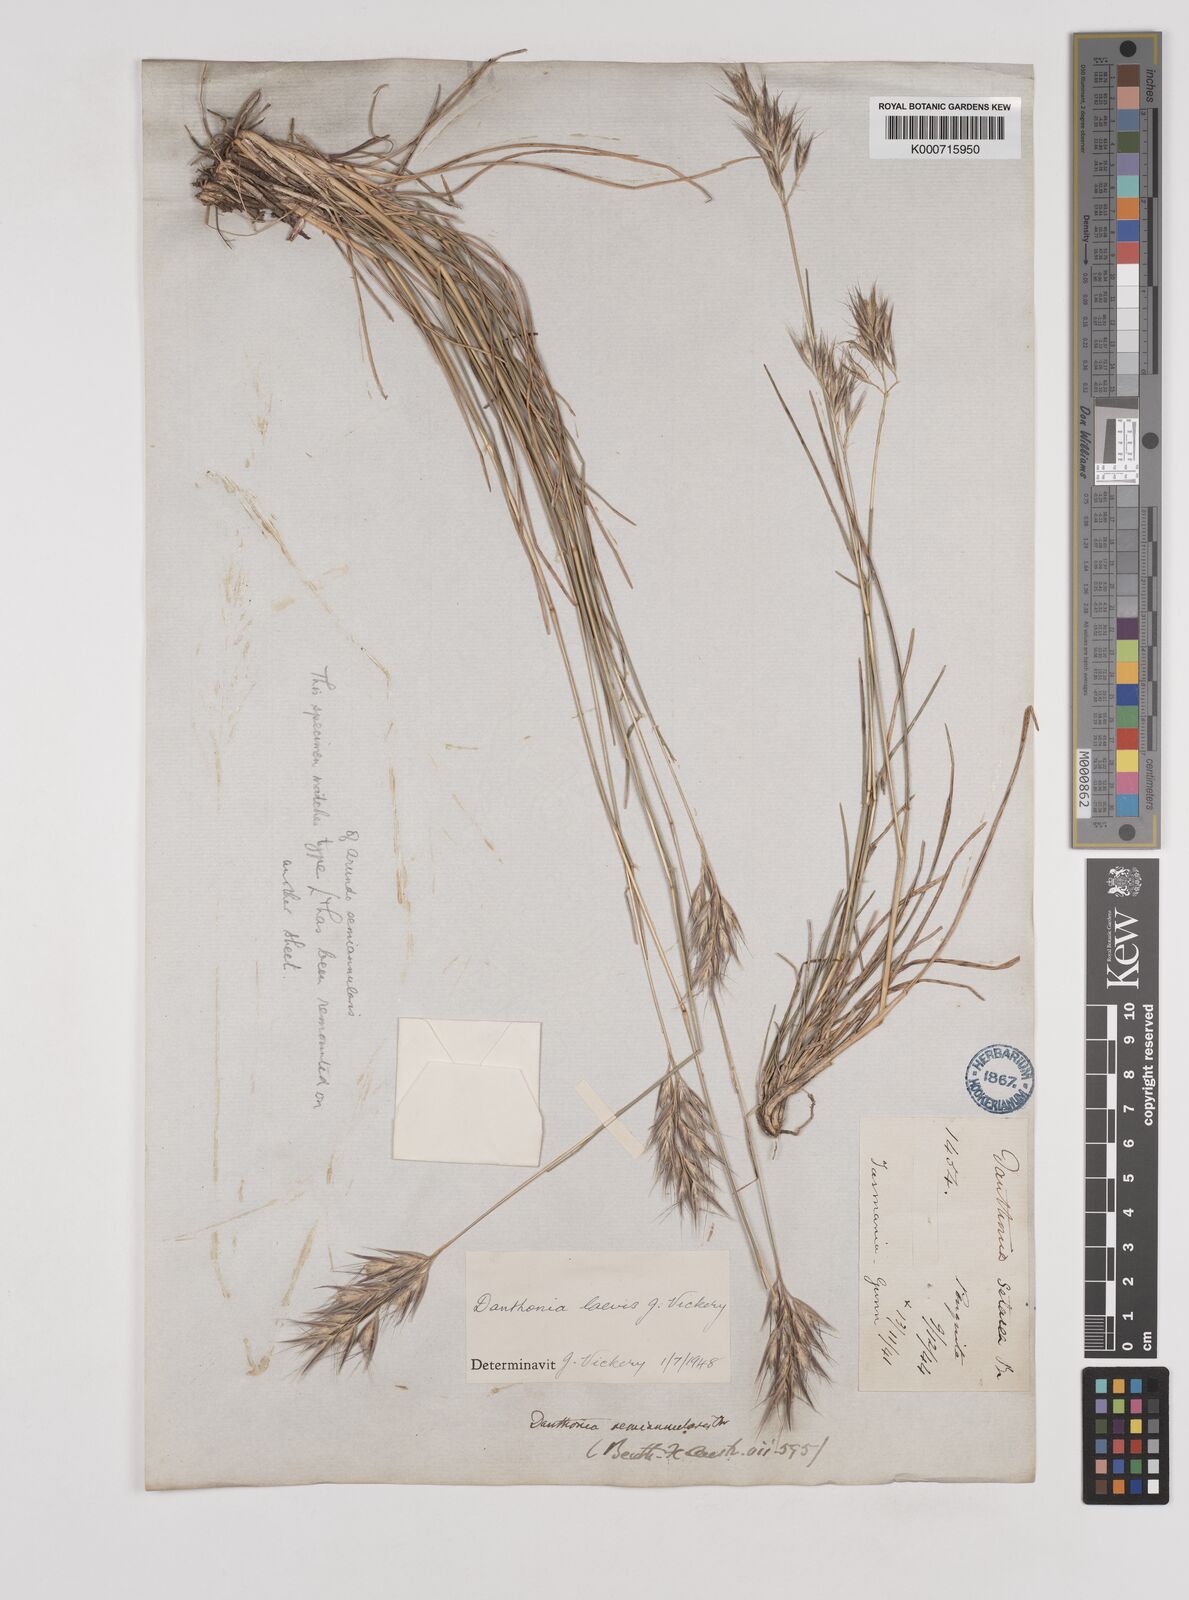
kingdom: Plantae
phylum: Tracheophyta
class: Liliopsida
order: Poales
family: Poaceae
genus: Rytidosperma
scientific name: Rytidosperma laeve
